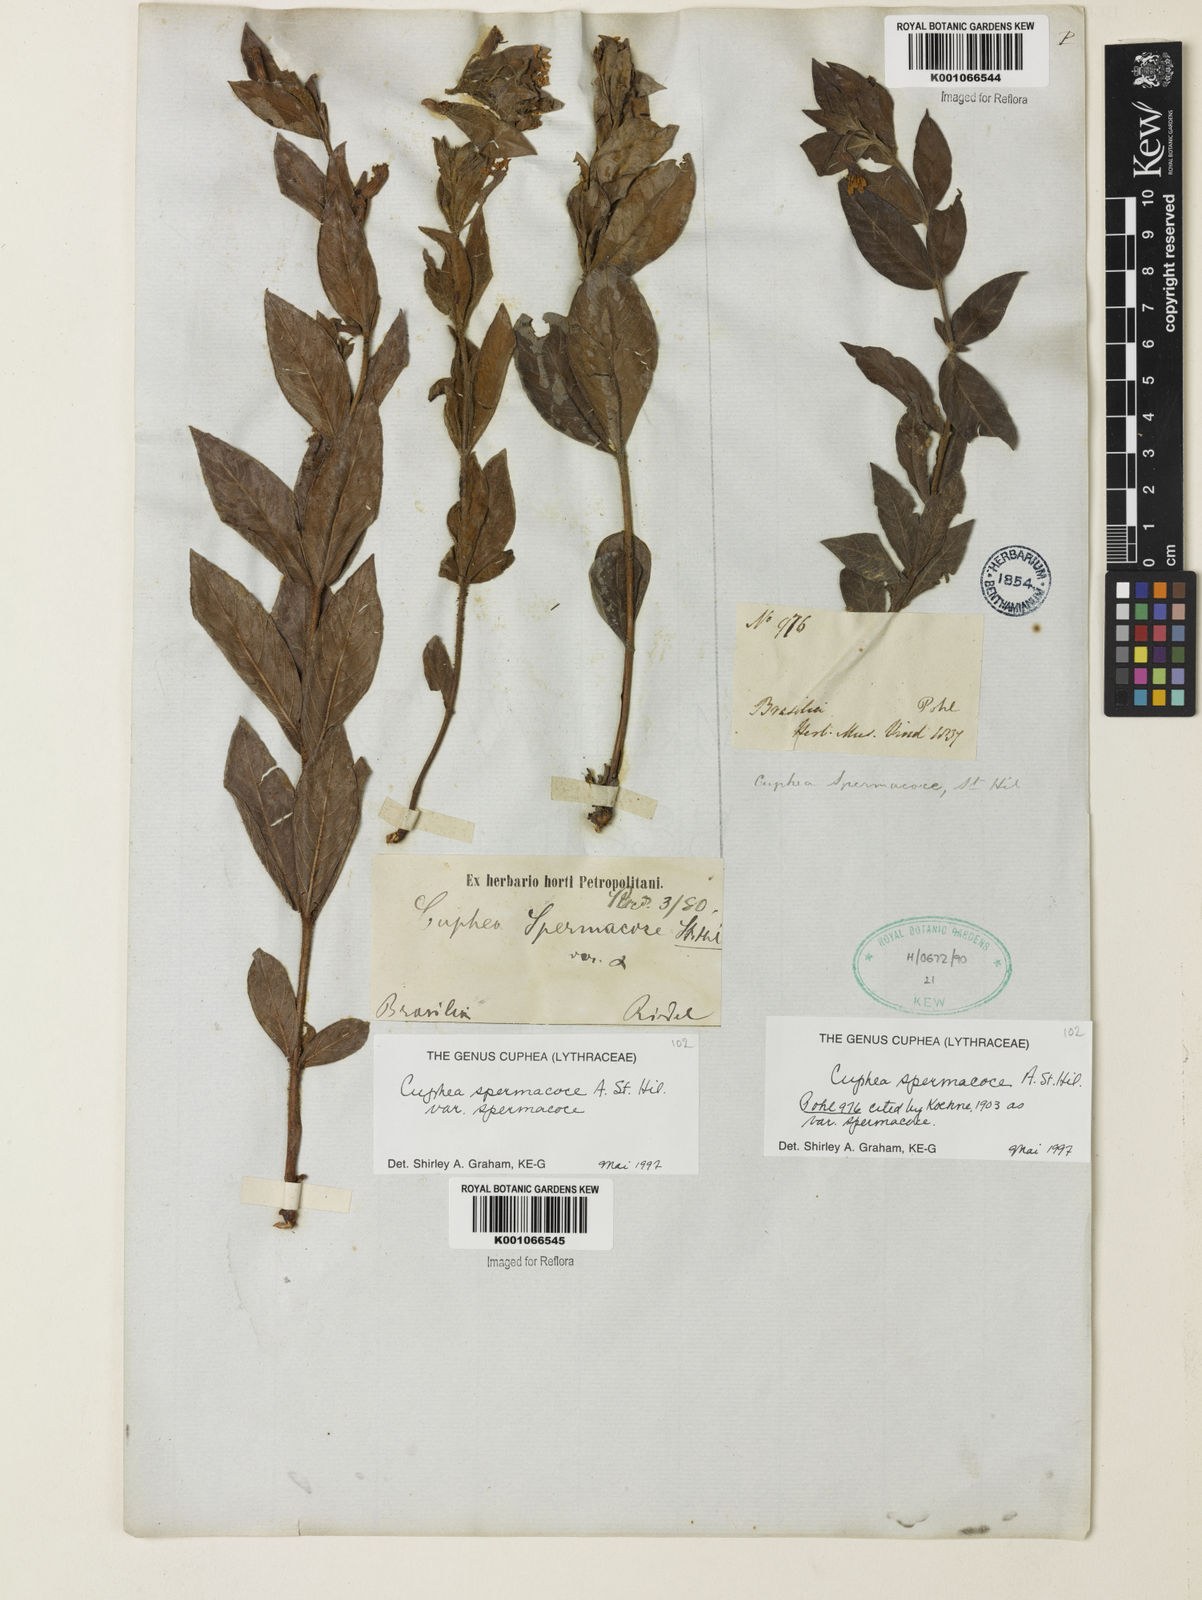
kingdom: Plantae
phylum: Tracheophyta
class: Magnoliopsida
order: Myrtales
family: Lythraceae
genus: Cuphea
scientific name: Cuphea spermacoce
